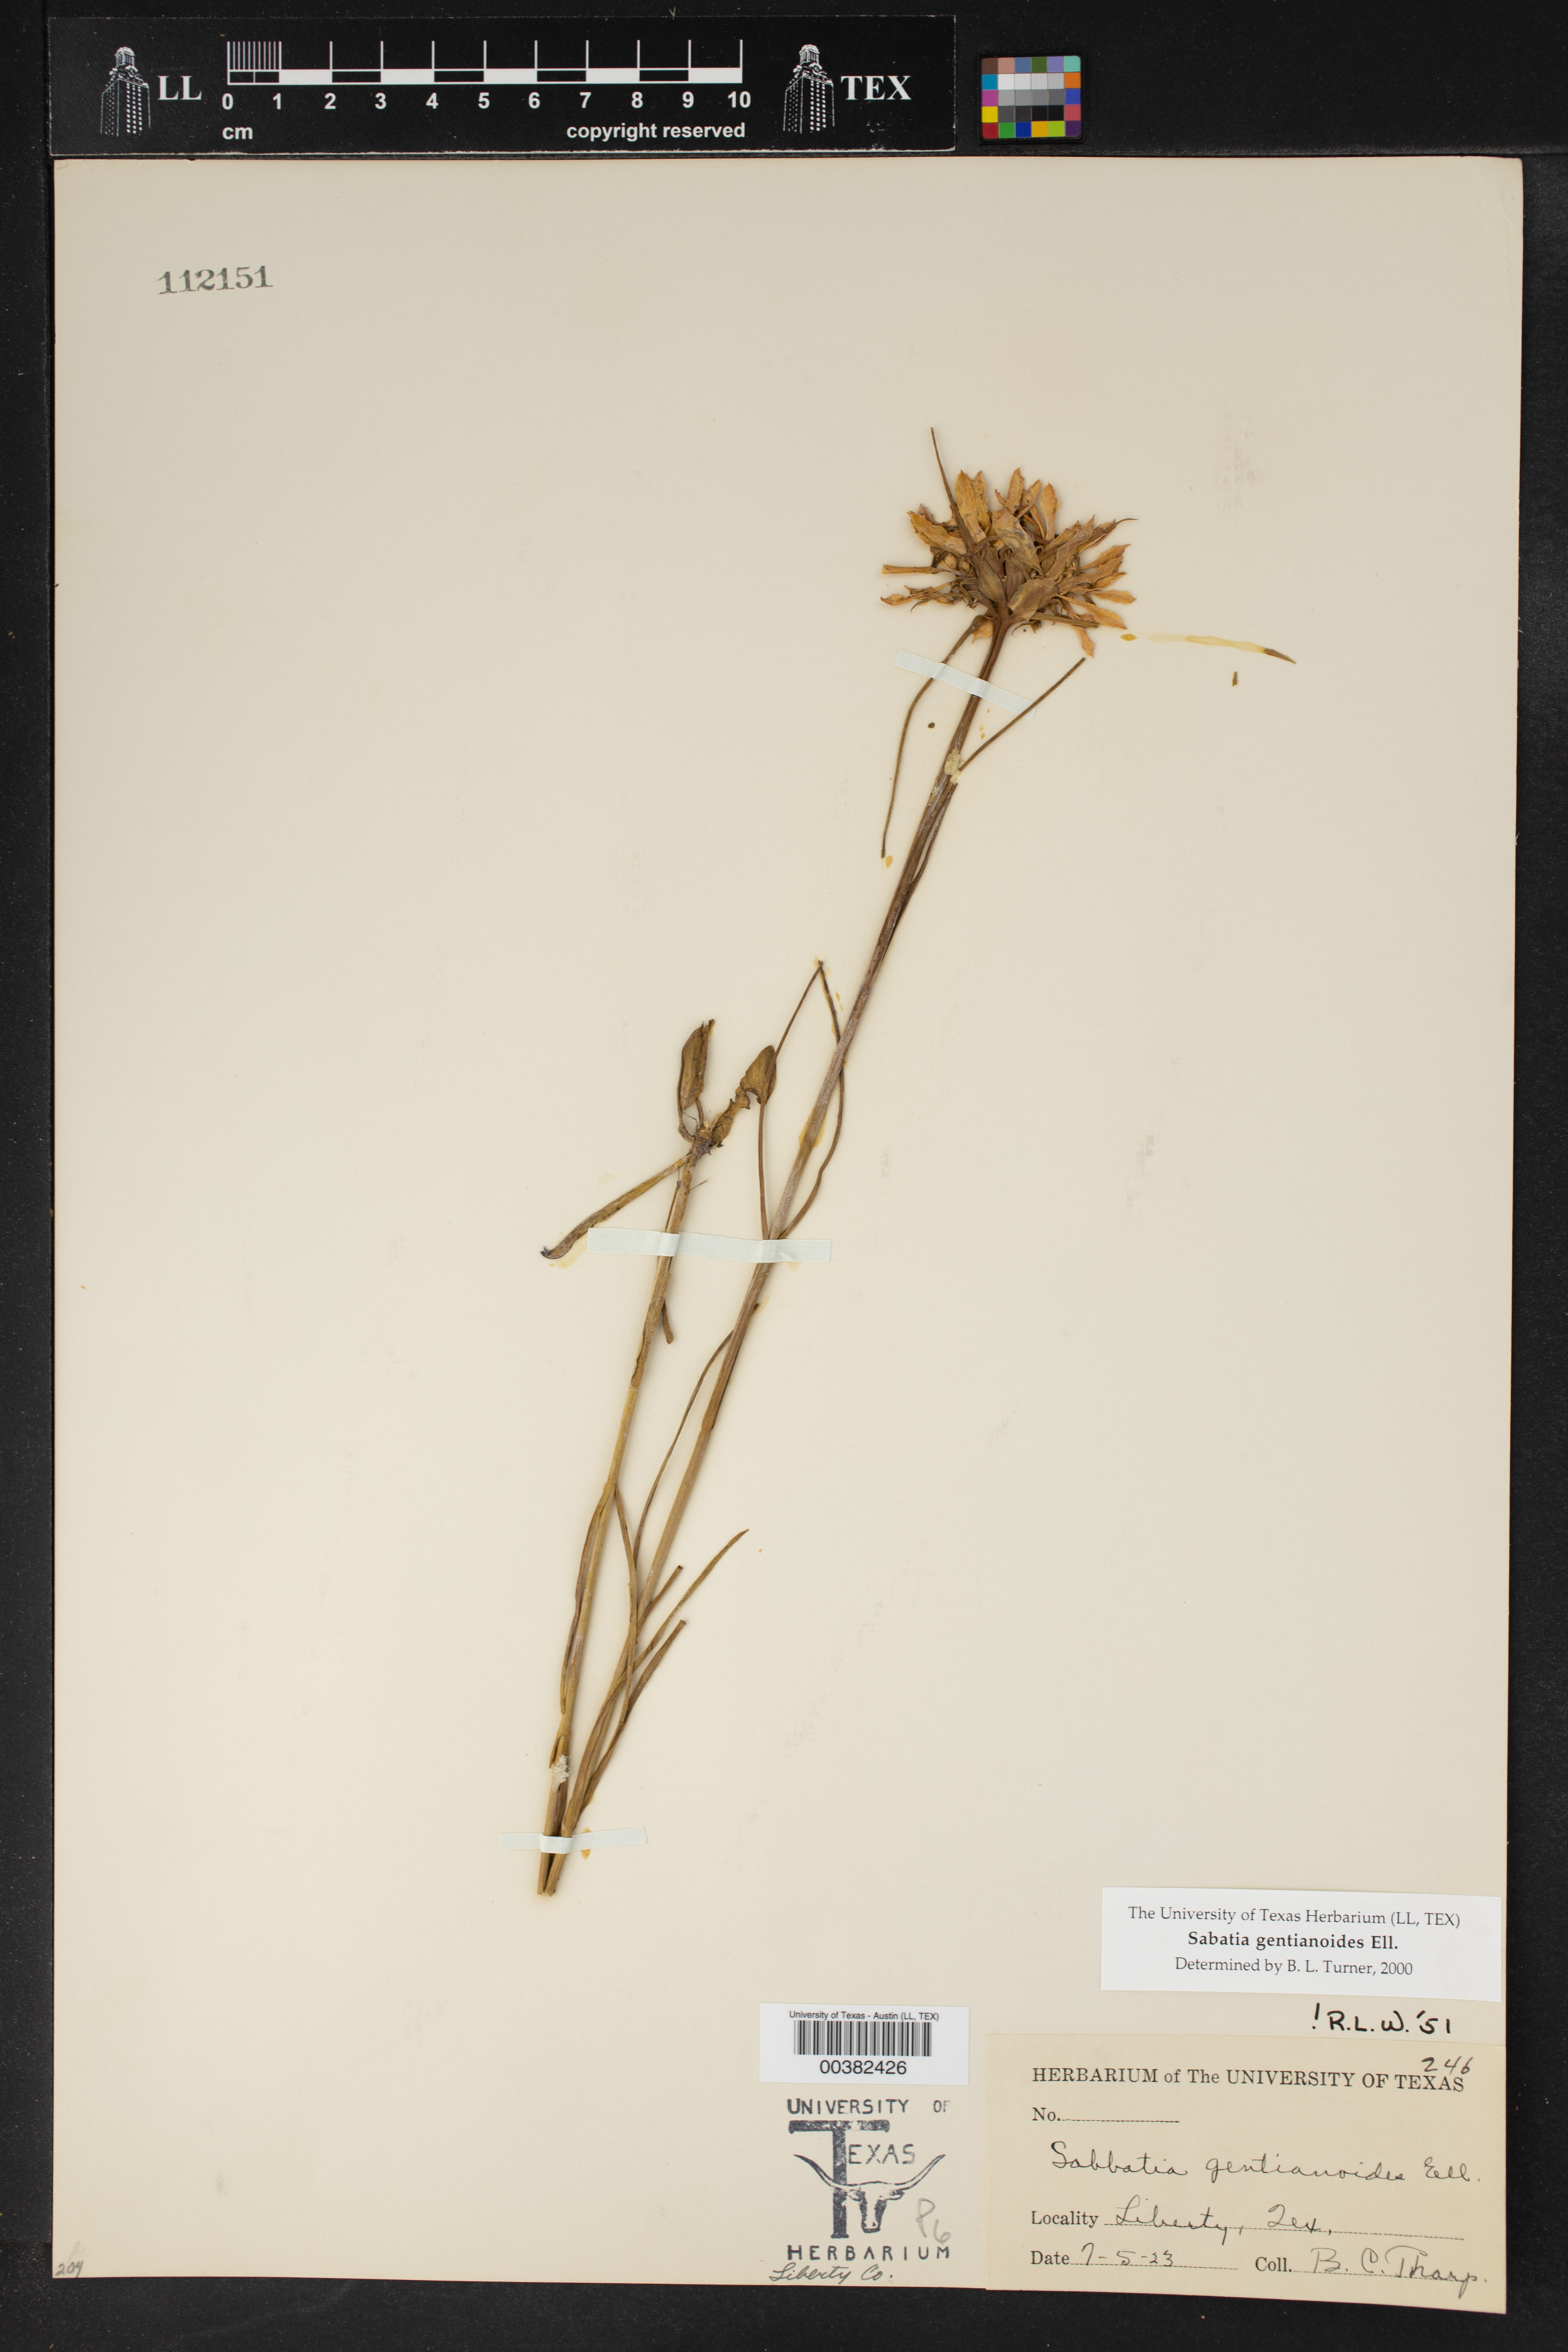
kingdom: Plantae
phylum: Tracheophyta
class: Magnoliopsida
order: Gentianales
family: Gentianaceae
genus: Sabatia
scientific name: Sabatia gentianoides
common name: Pinewoods rose-gentian
